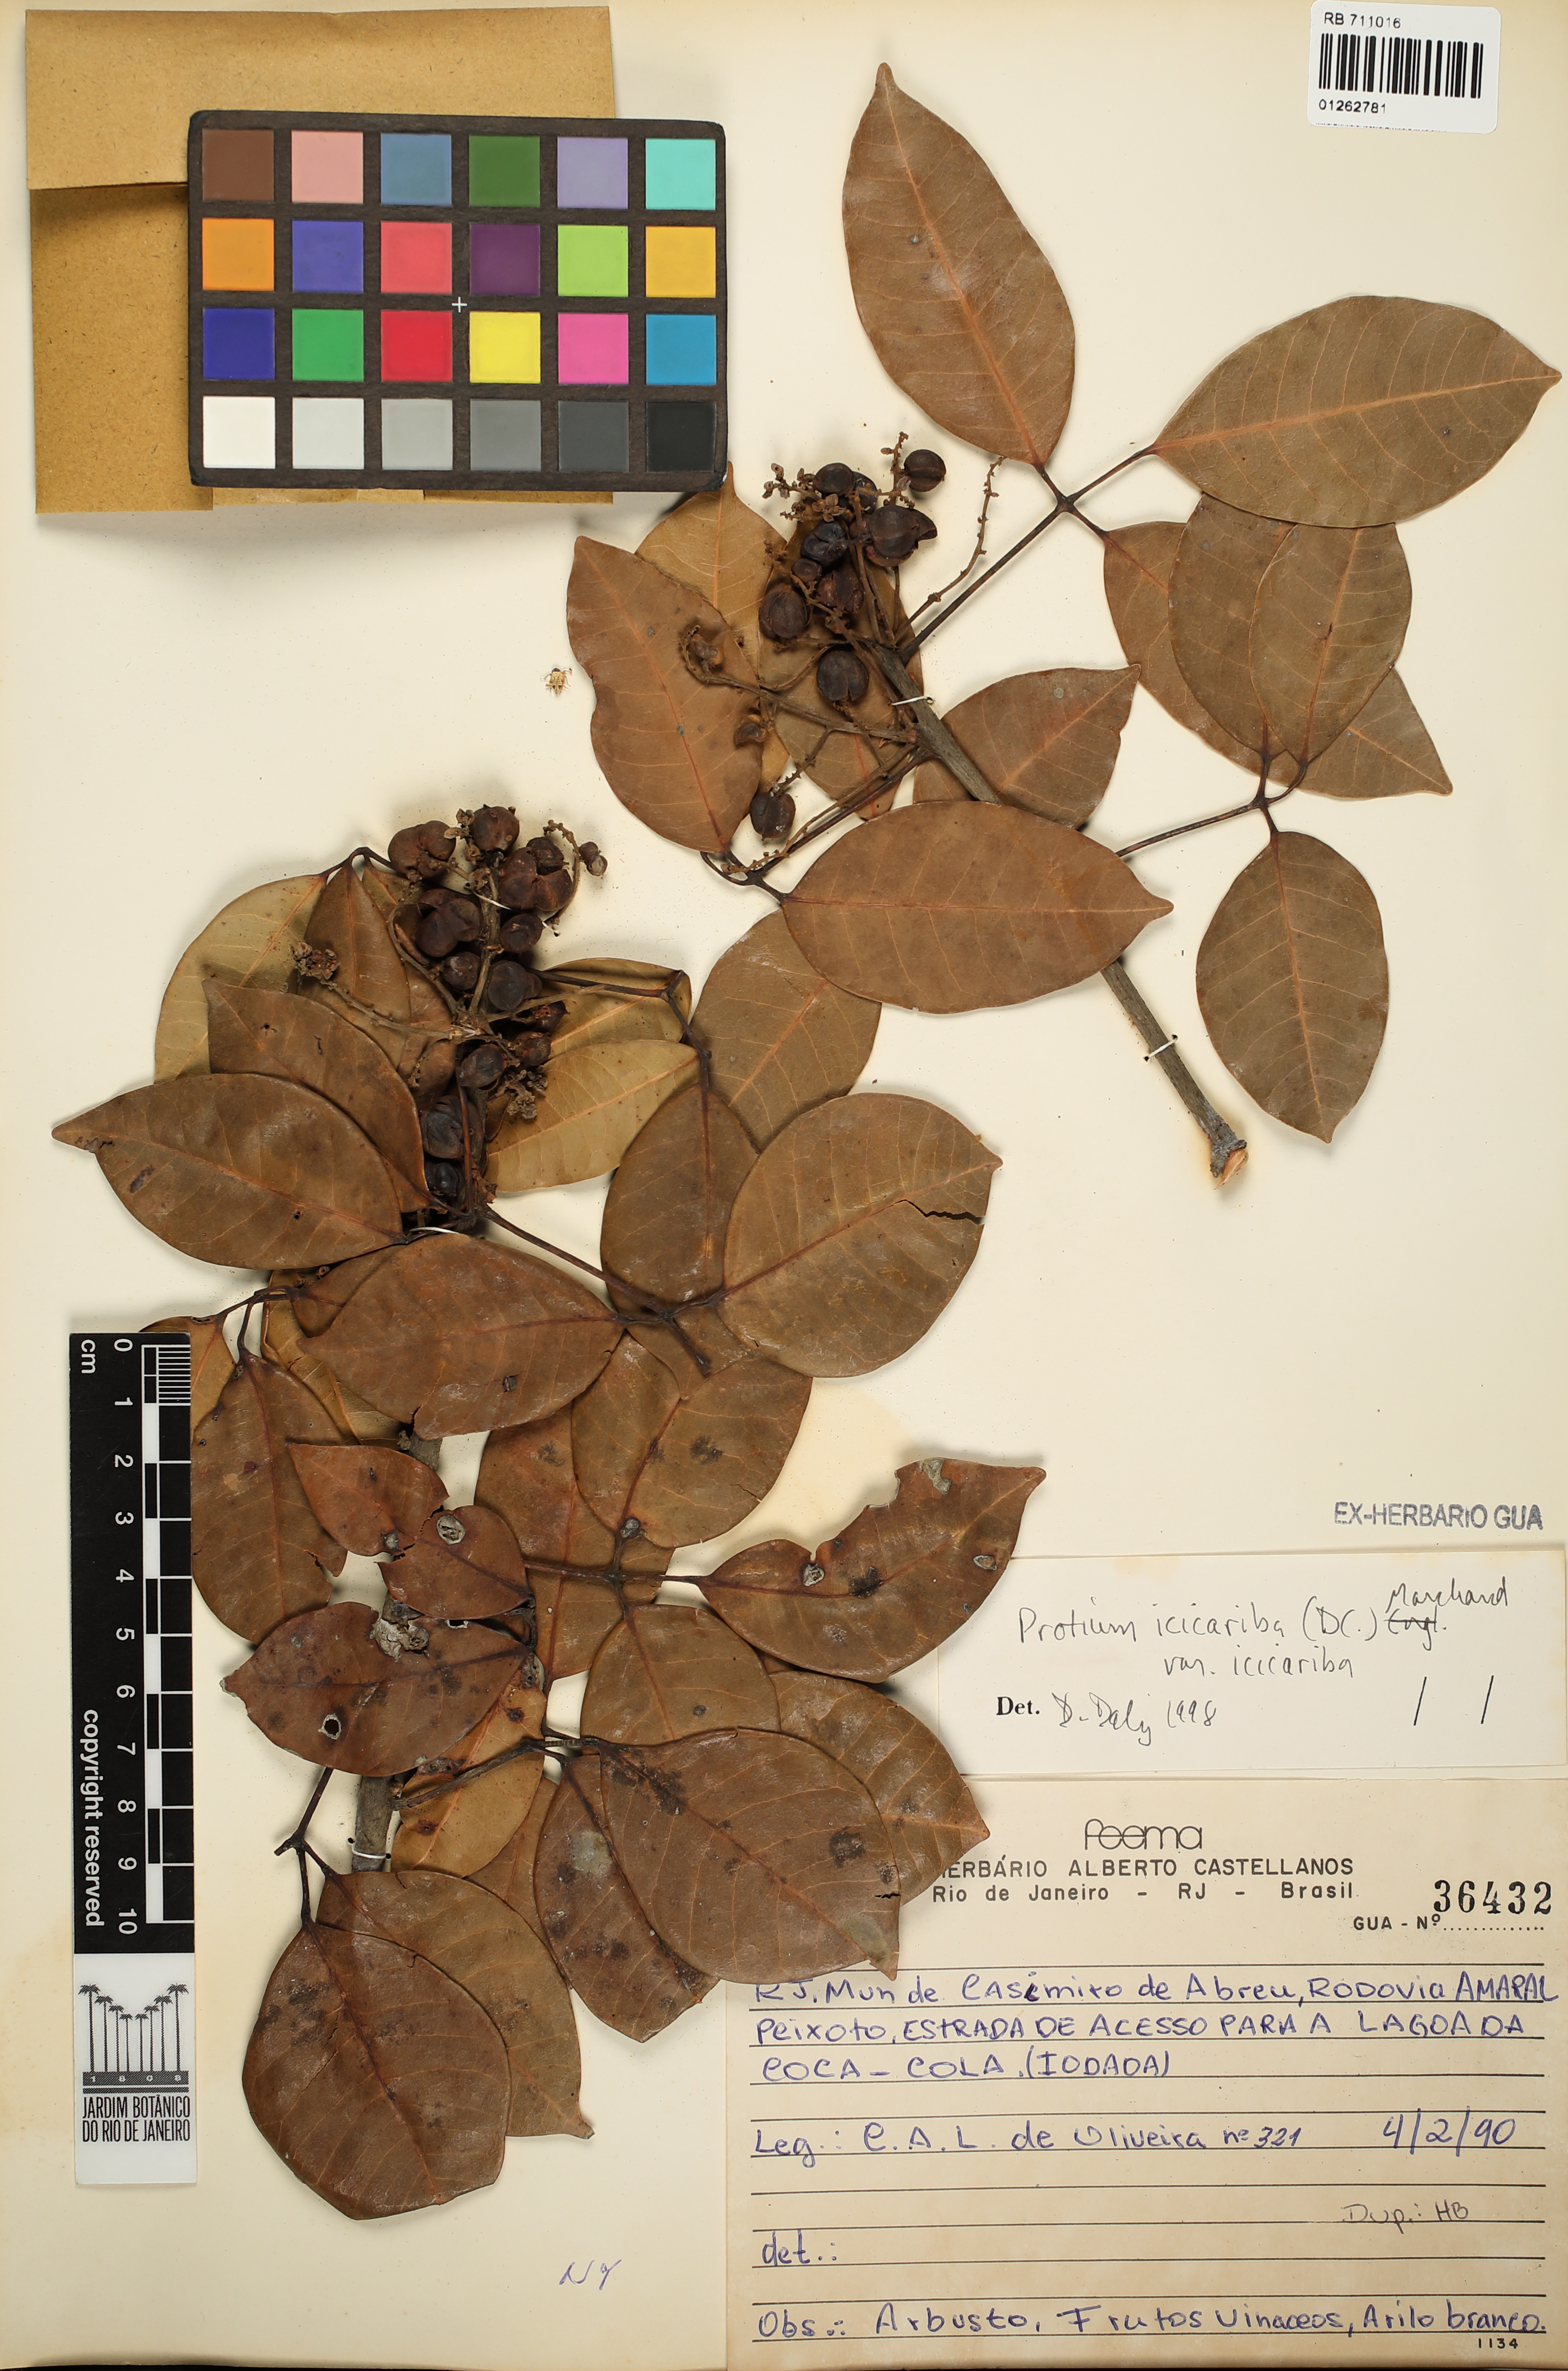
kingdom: Plantae
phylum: Tracheophyta
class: Magnoliopsida
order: Sapindales
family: Burseraceae
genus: Protium
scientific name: Protium icicariba
